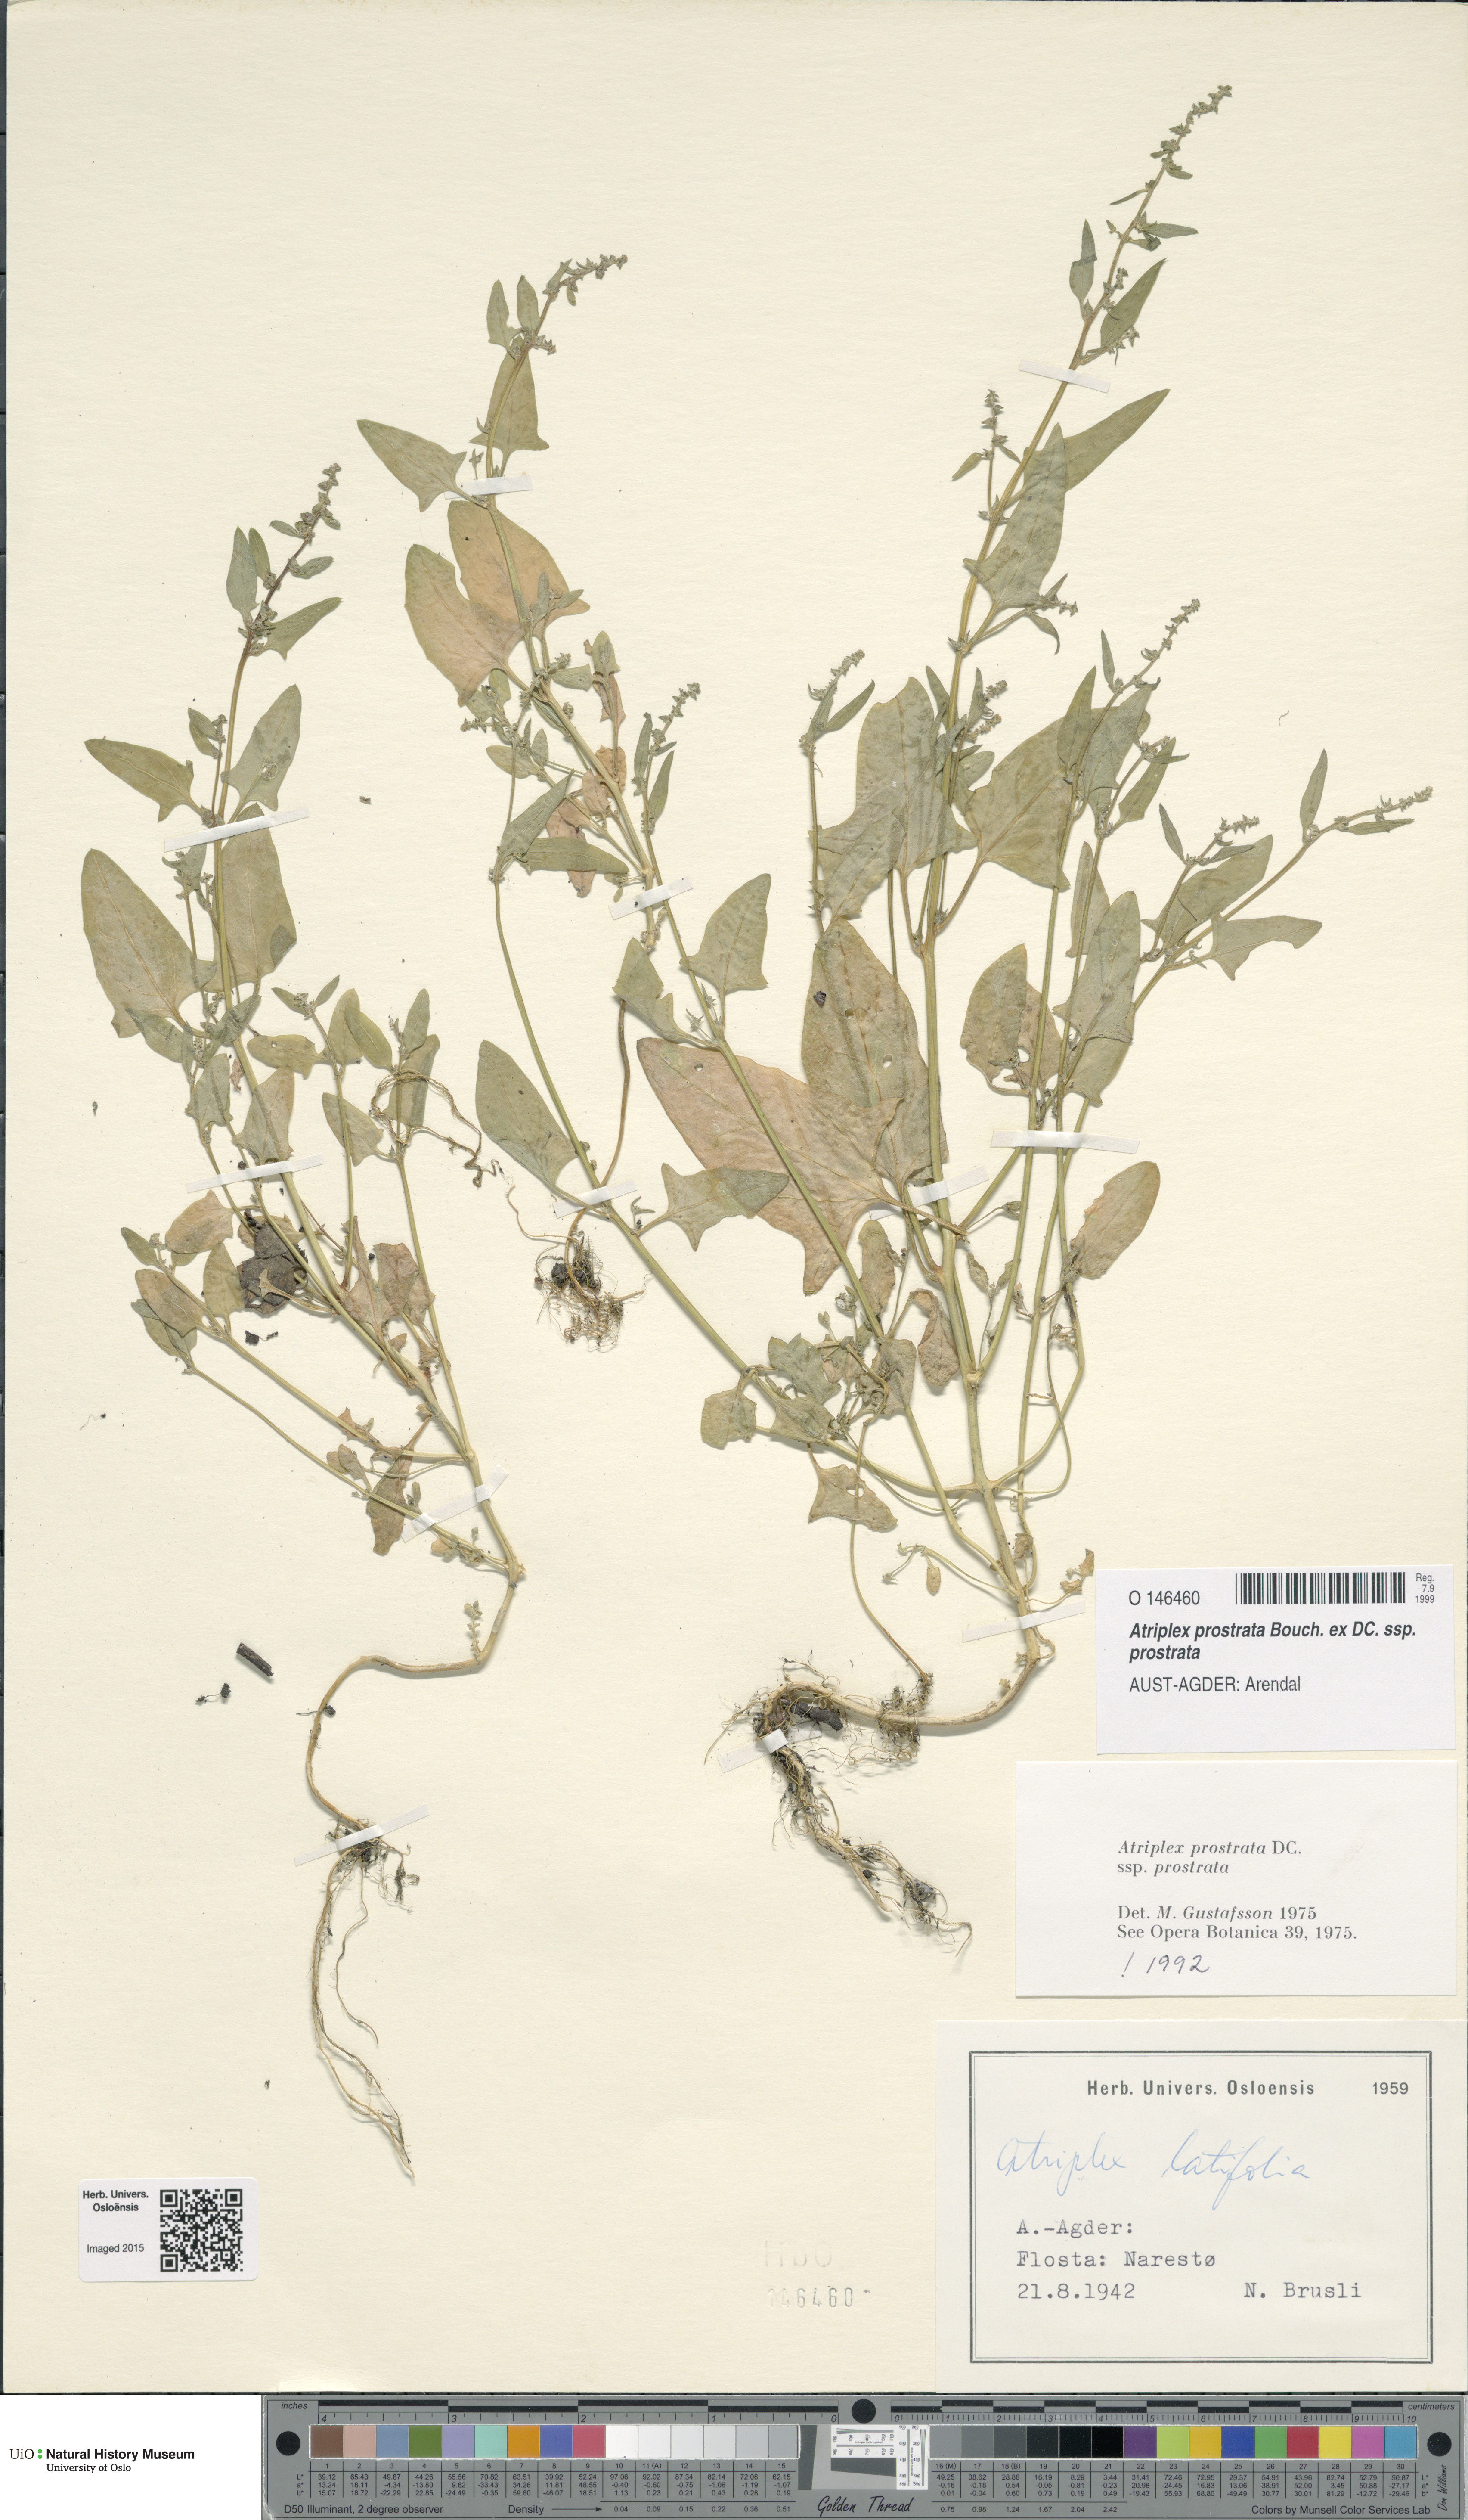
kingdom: Plantae
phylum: Tracheophyta
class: Magnoliopsida
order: Caryophyllales
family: Amaranthaceae
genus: Atriplex
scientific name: Atriplex prostrata
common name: Spear-leaved orache
